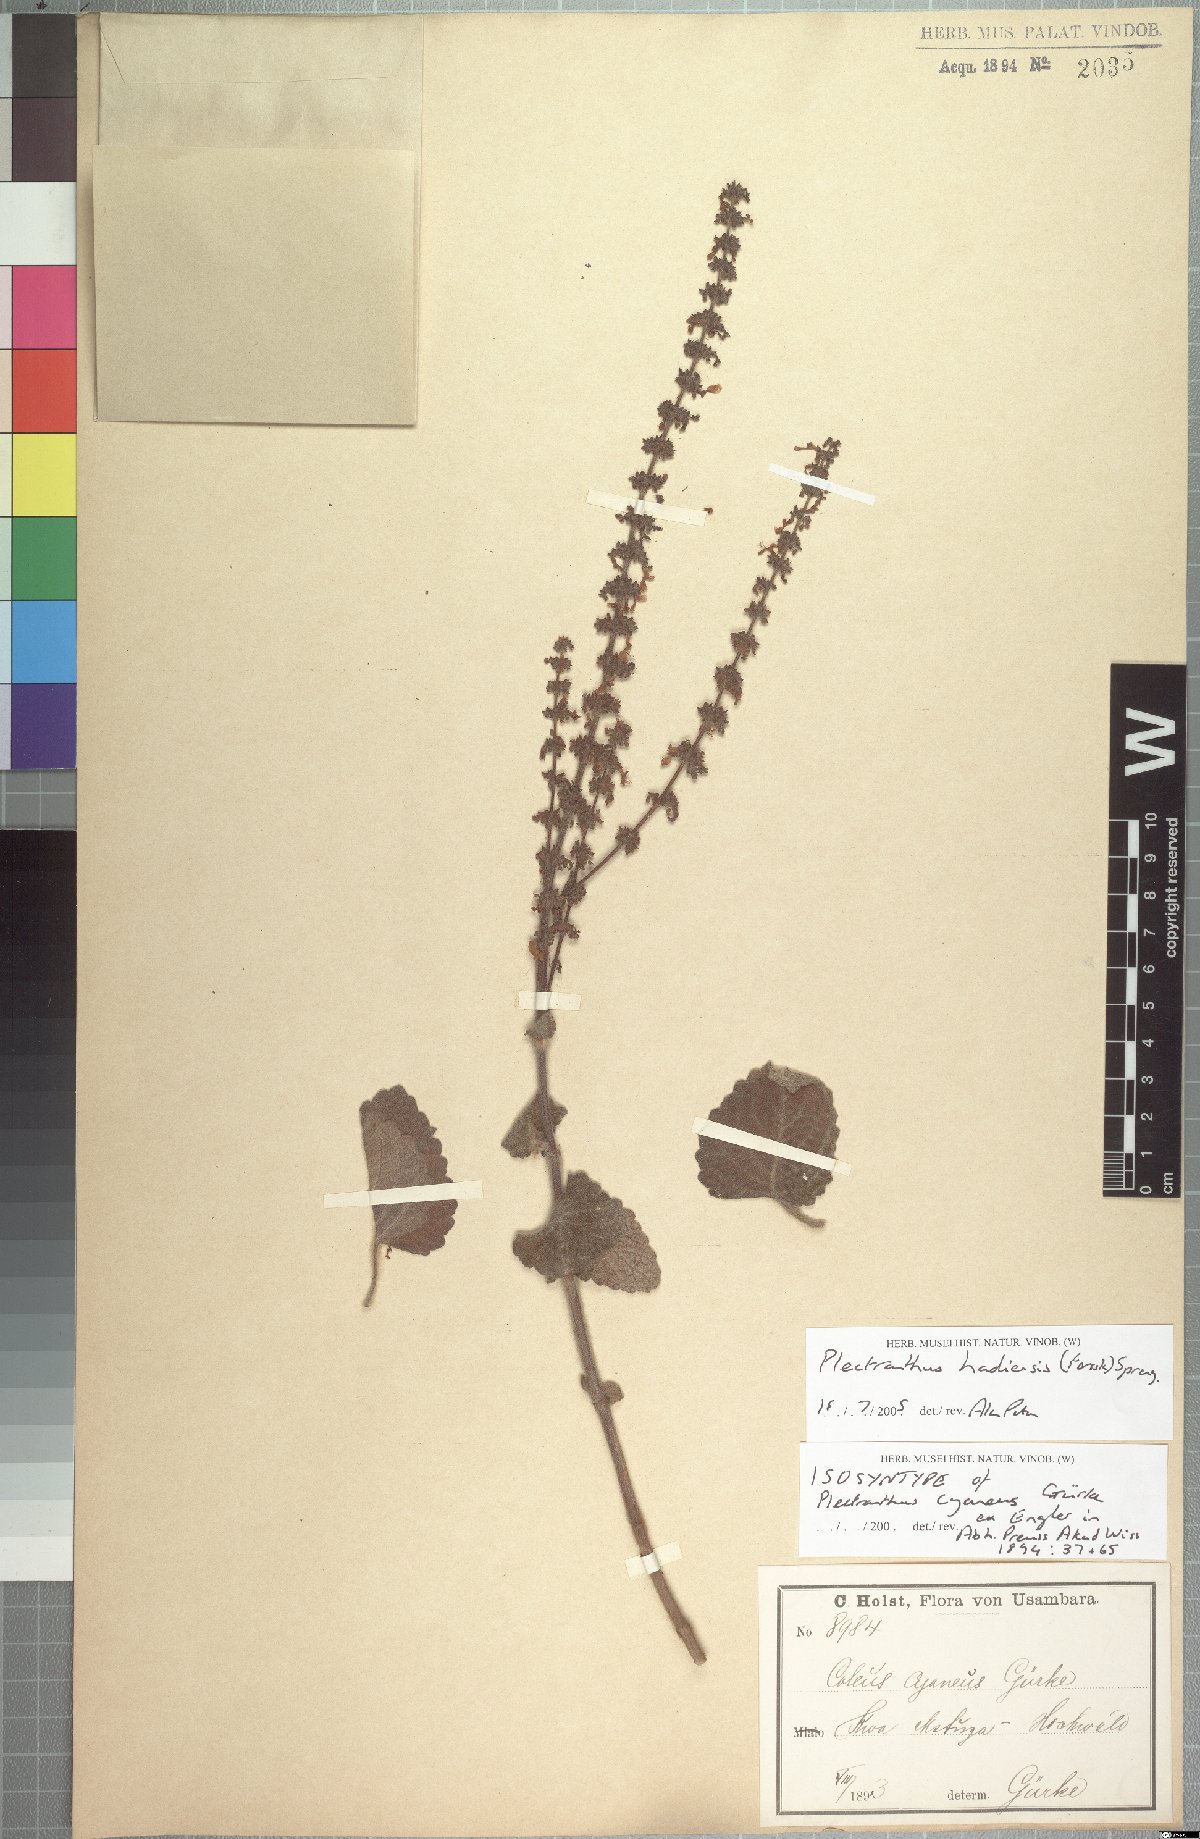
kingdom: Plantae
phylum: Tracheophyta
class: Magnoliopsida
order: Lamiales
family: Lamiaceae
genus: Coleus
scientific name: Coleus hadiensis
